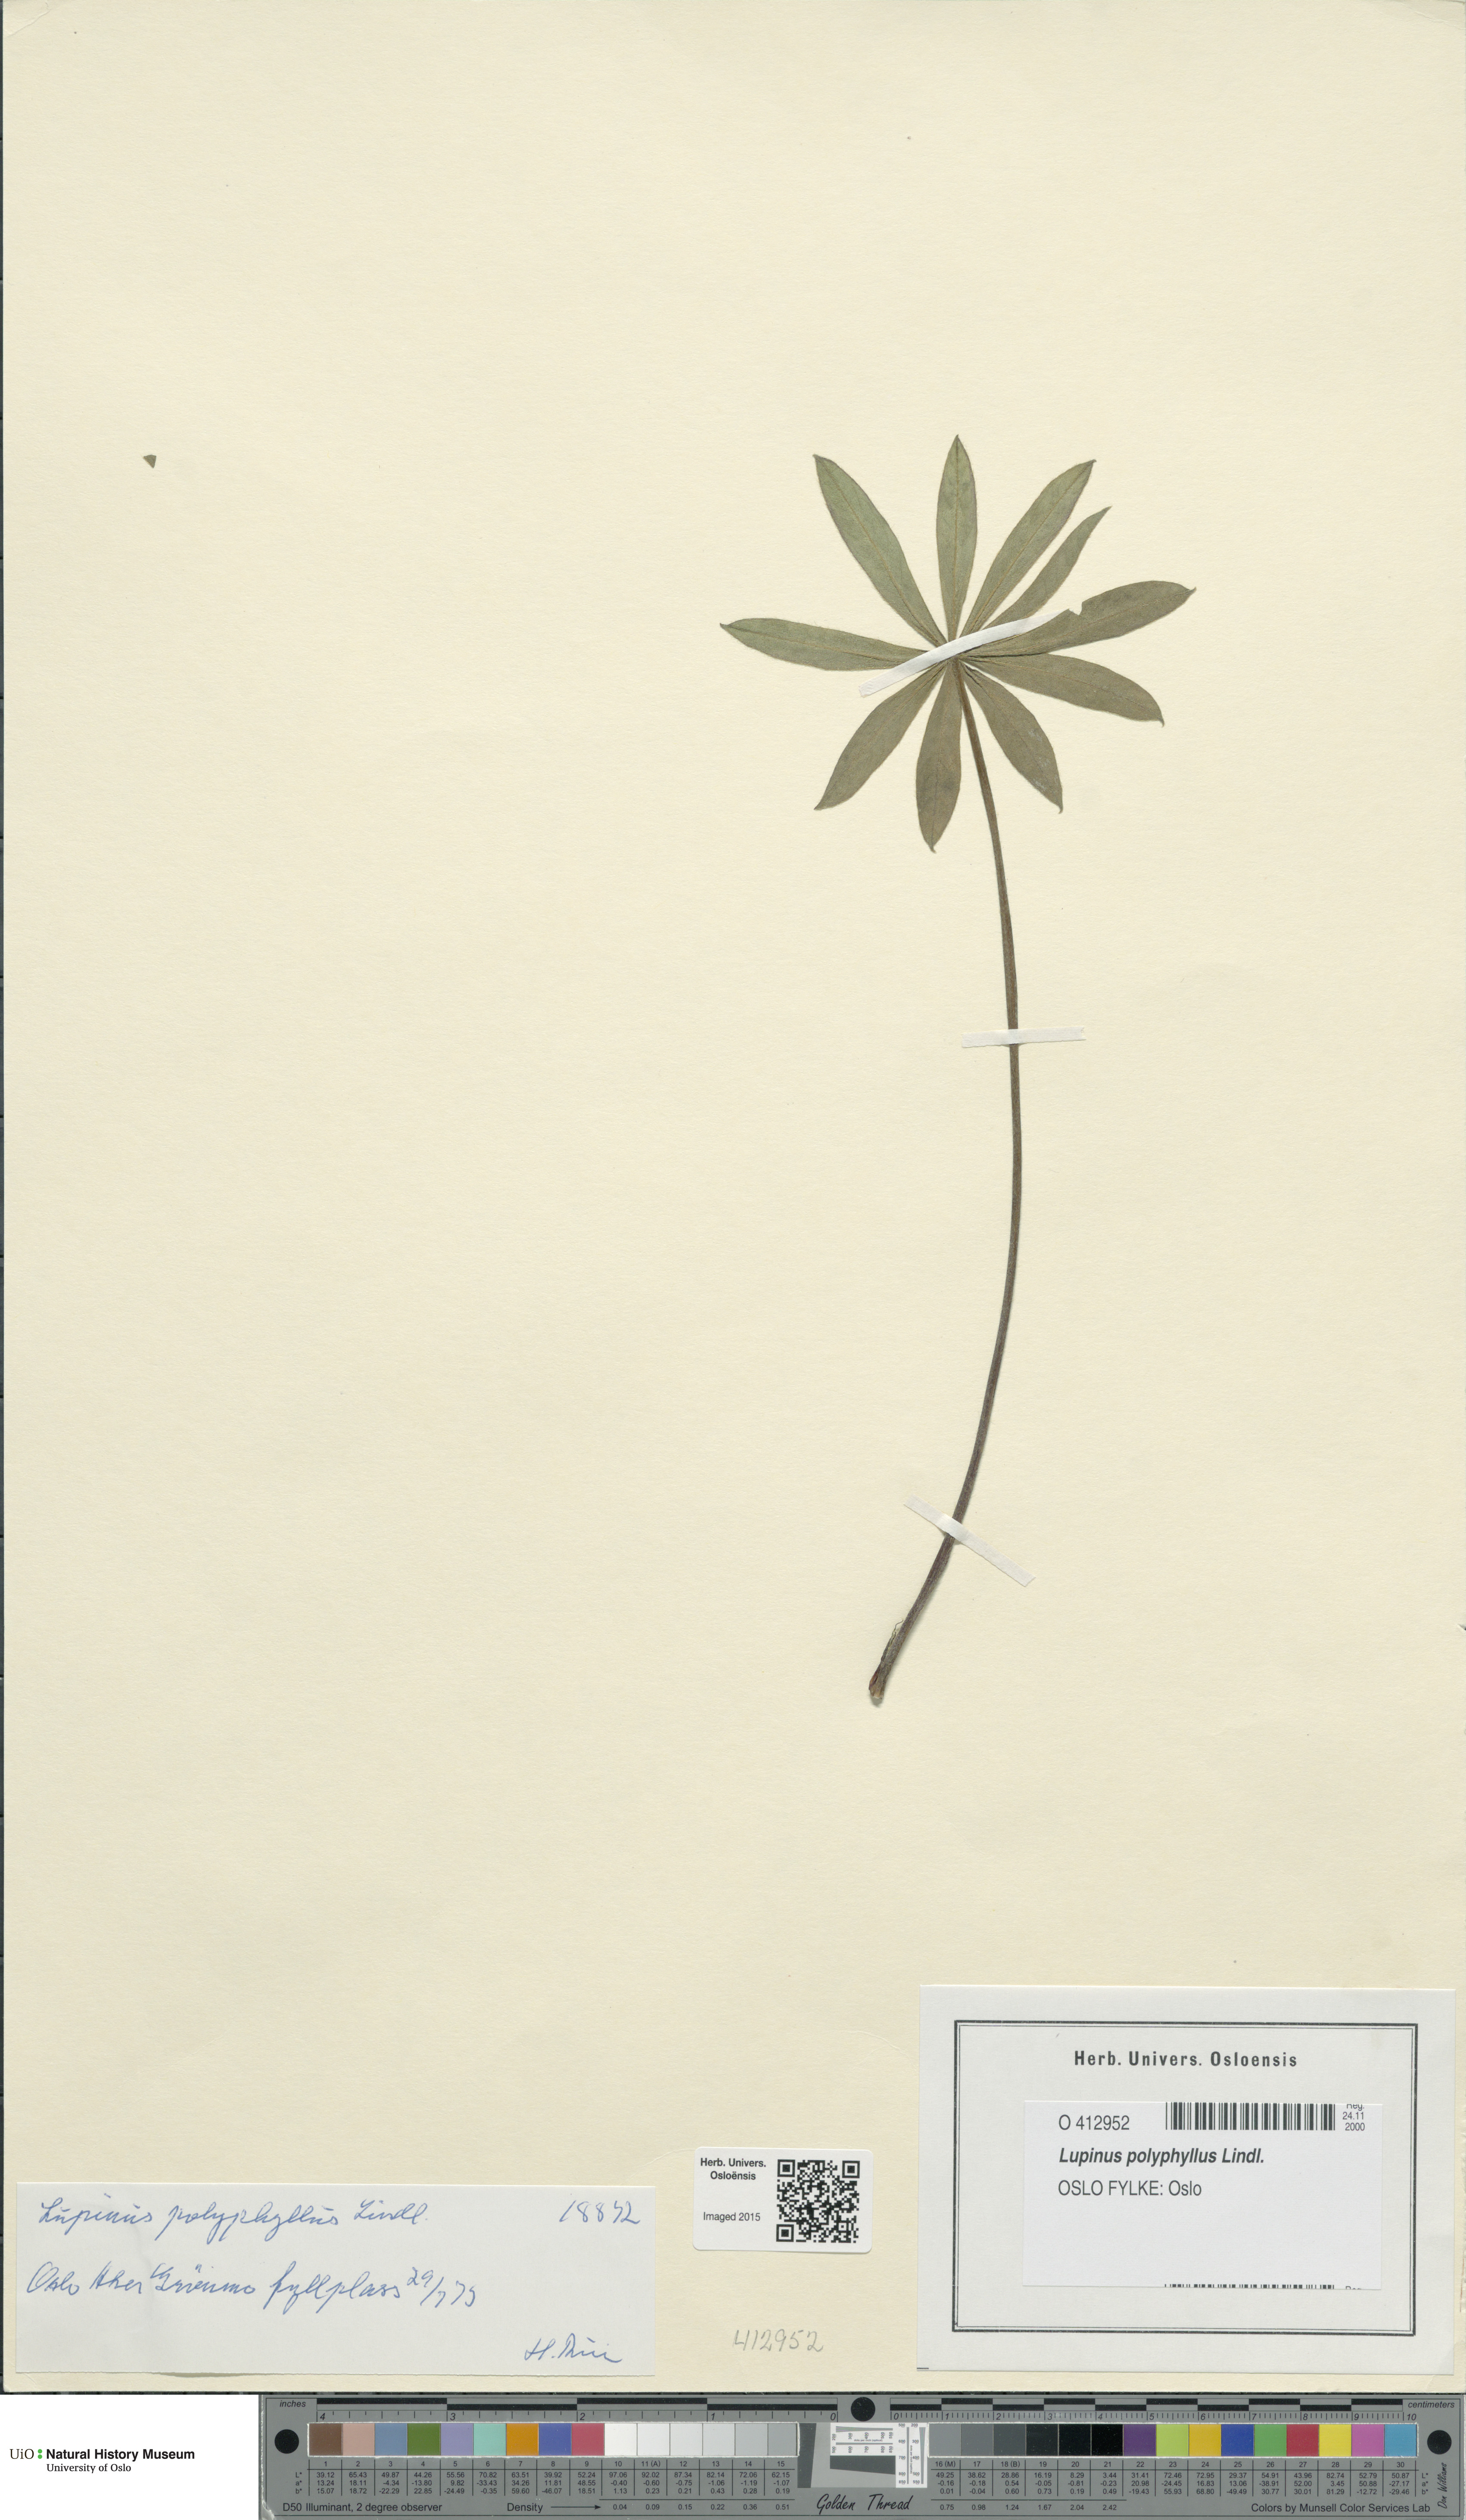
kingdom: Plantae
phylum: Tracheophyta
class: Magnoliopsida
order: Fabales
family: Fabaceae
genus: Lupinus
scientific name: Lupinus polyphyllus
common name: Garden lupin
